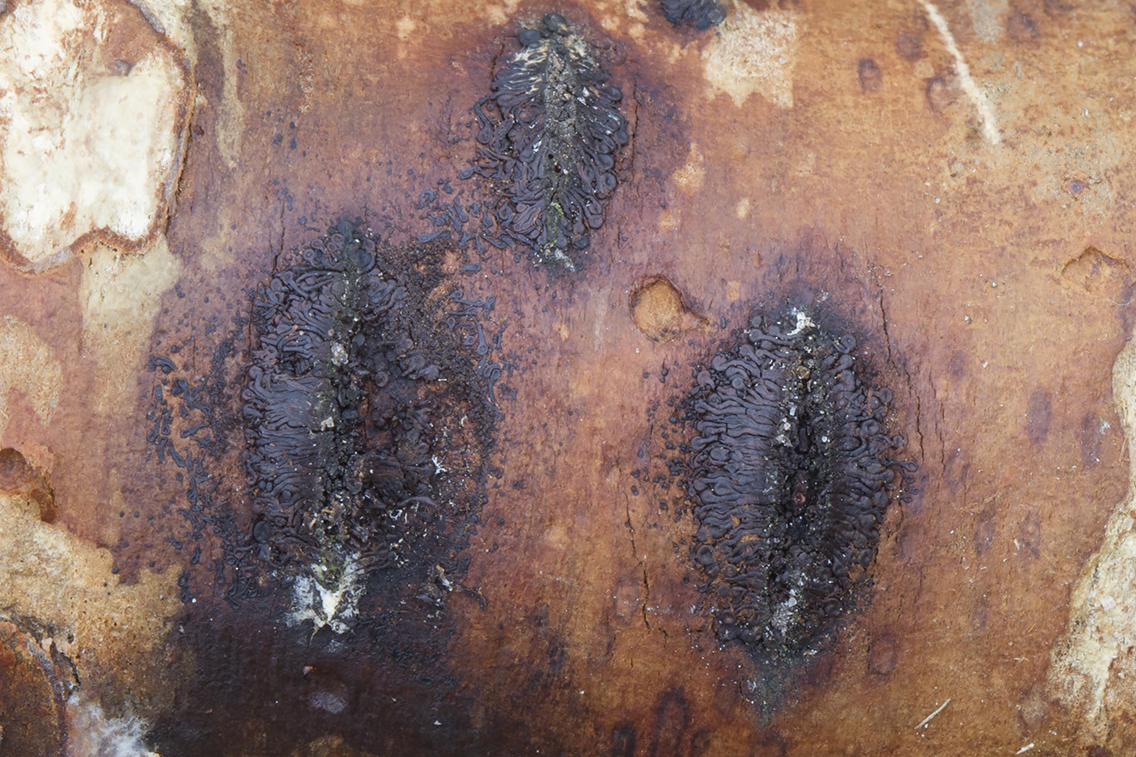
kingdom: Fungi
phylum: Ascomycota
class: Sordariomycetes
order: Calosphaeriales
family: Calosphaeriaceae
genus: Calosphaeria
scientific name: Calosphaeria pulchella
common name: smuk slyngkerne
